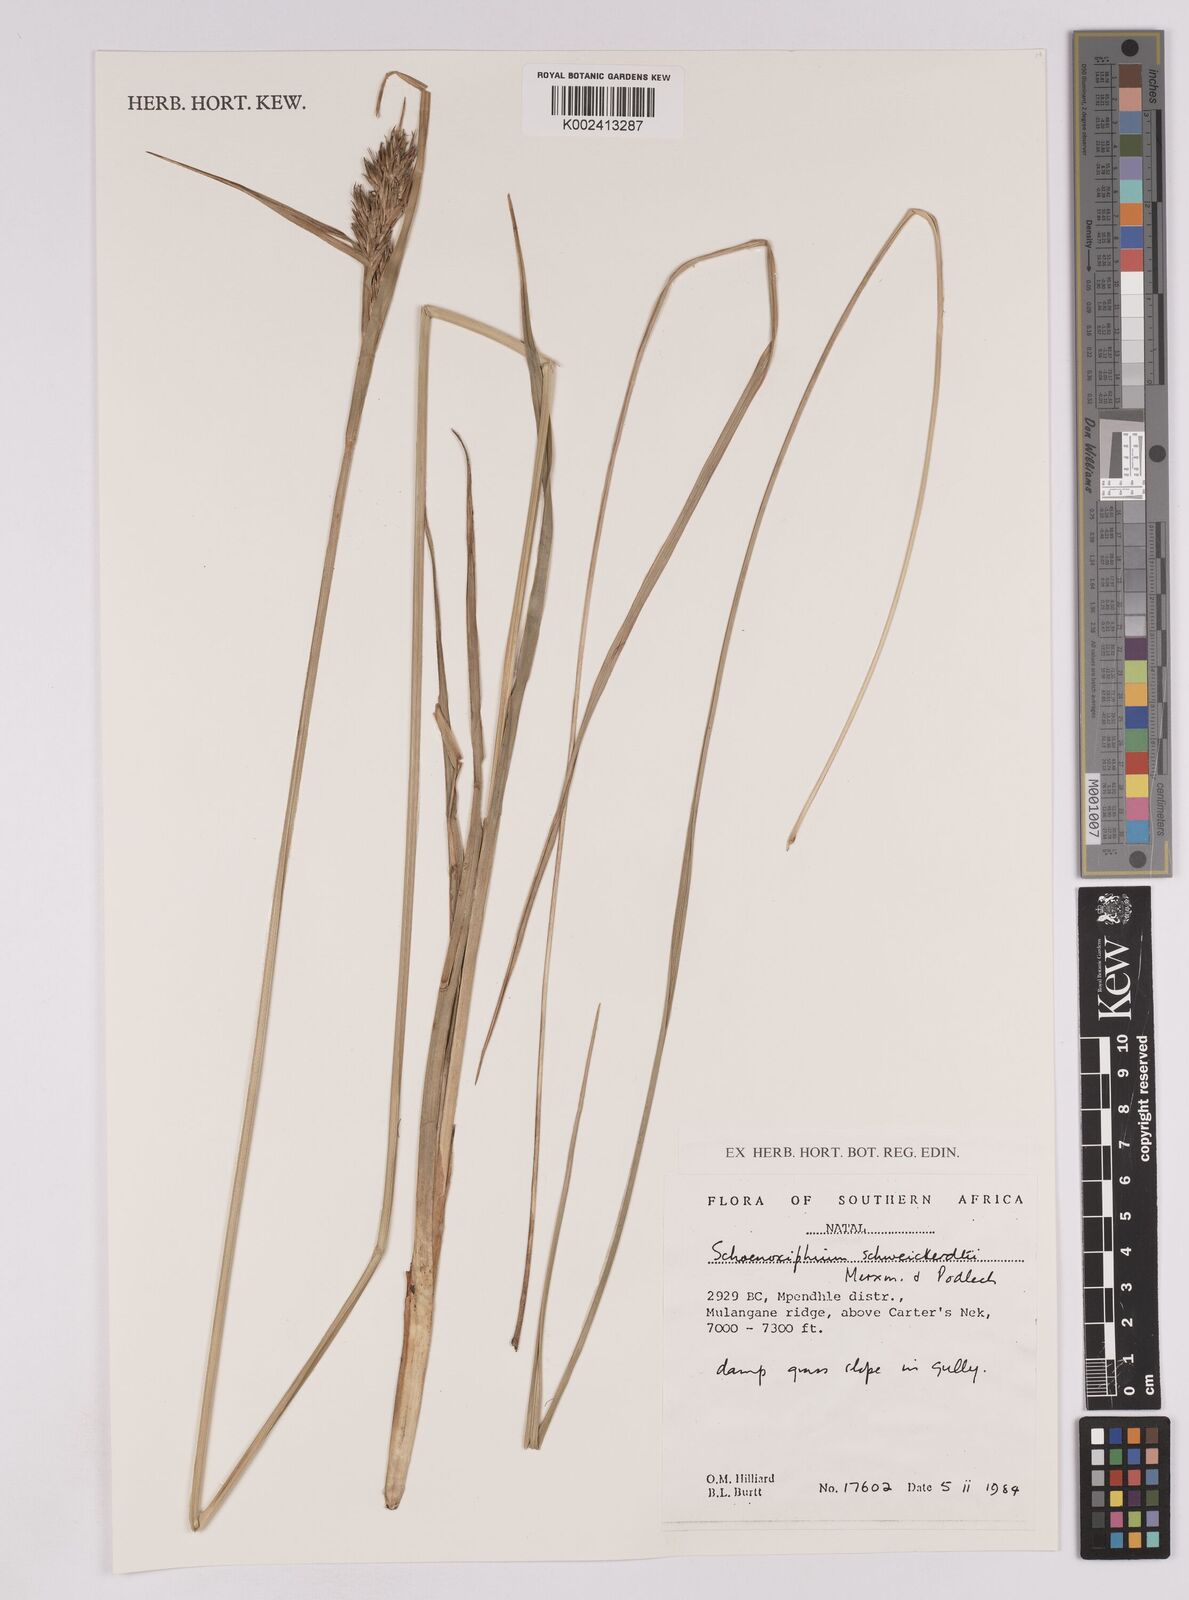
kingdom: Plantae
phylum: Tracheophyta
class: Liliopsida
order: Poales
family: Cyperaceae
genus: Carex
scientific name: Carex schweickerdtii
